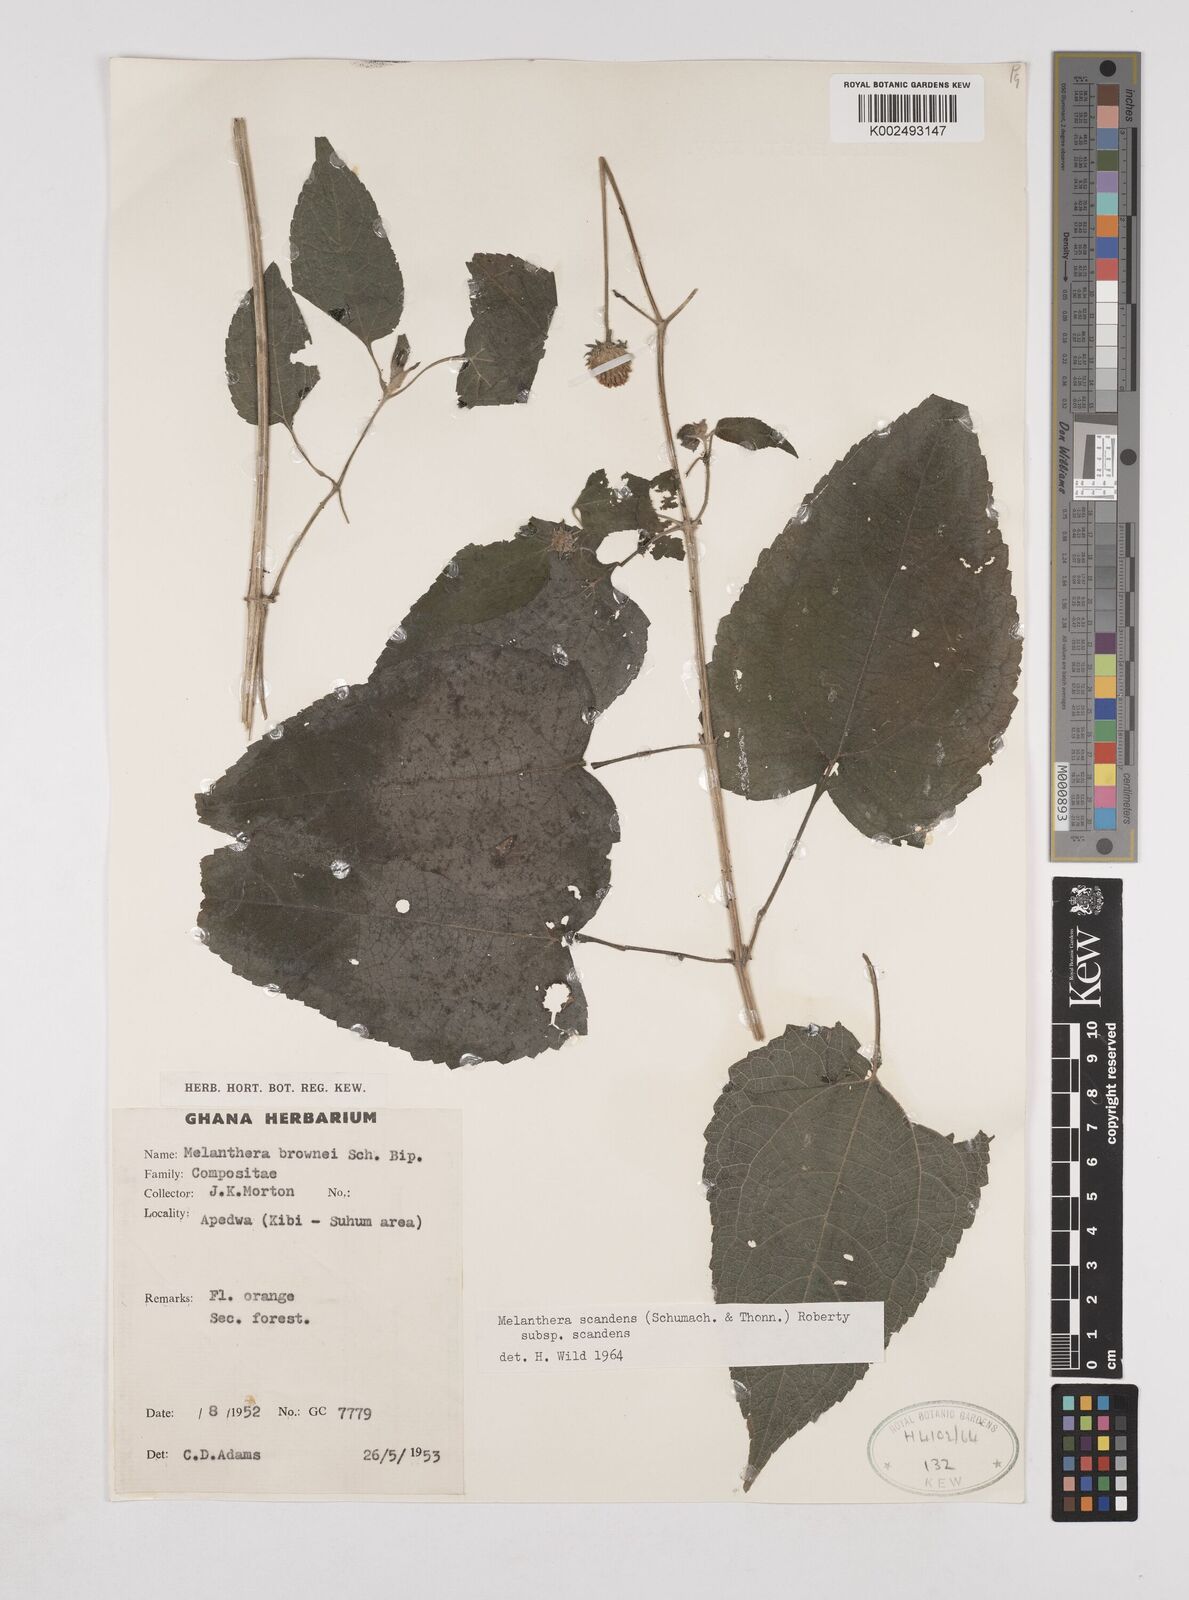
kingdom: Plantae
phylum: Tracheophyta
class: Magnoliopsida
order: Asterales
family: Asteraceae
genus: Lipotriche
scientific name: Lipotriche scandens
